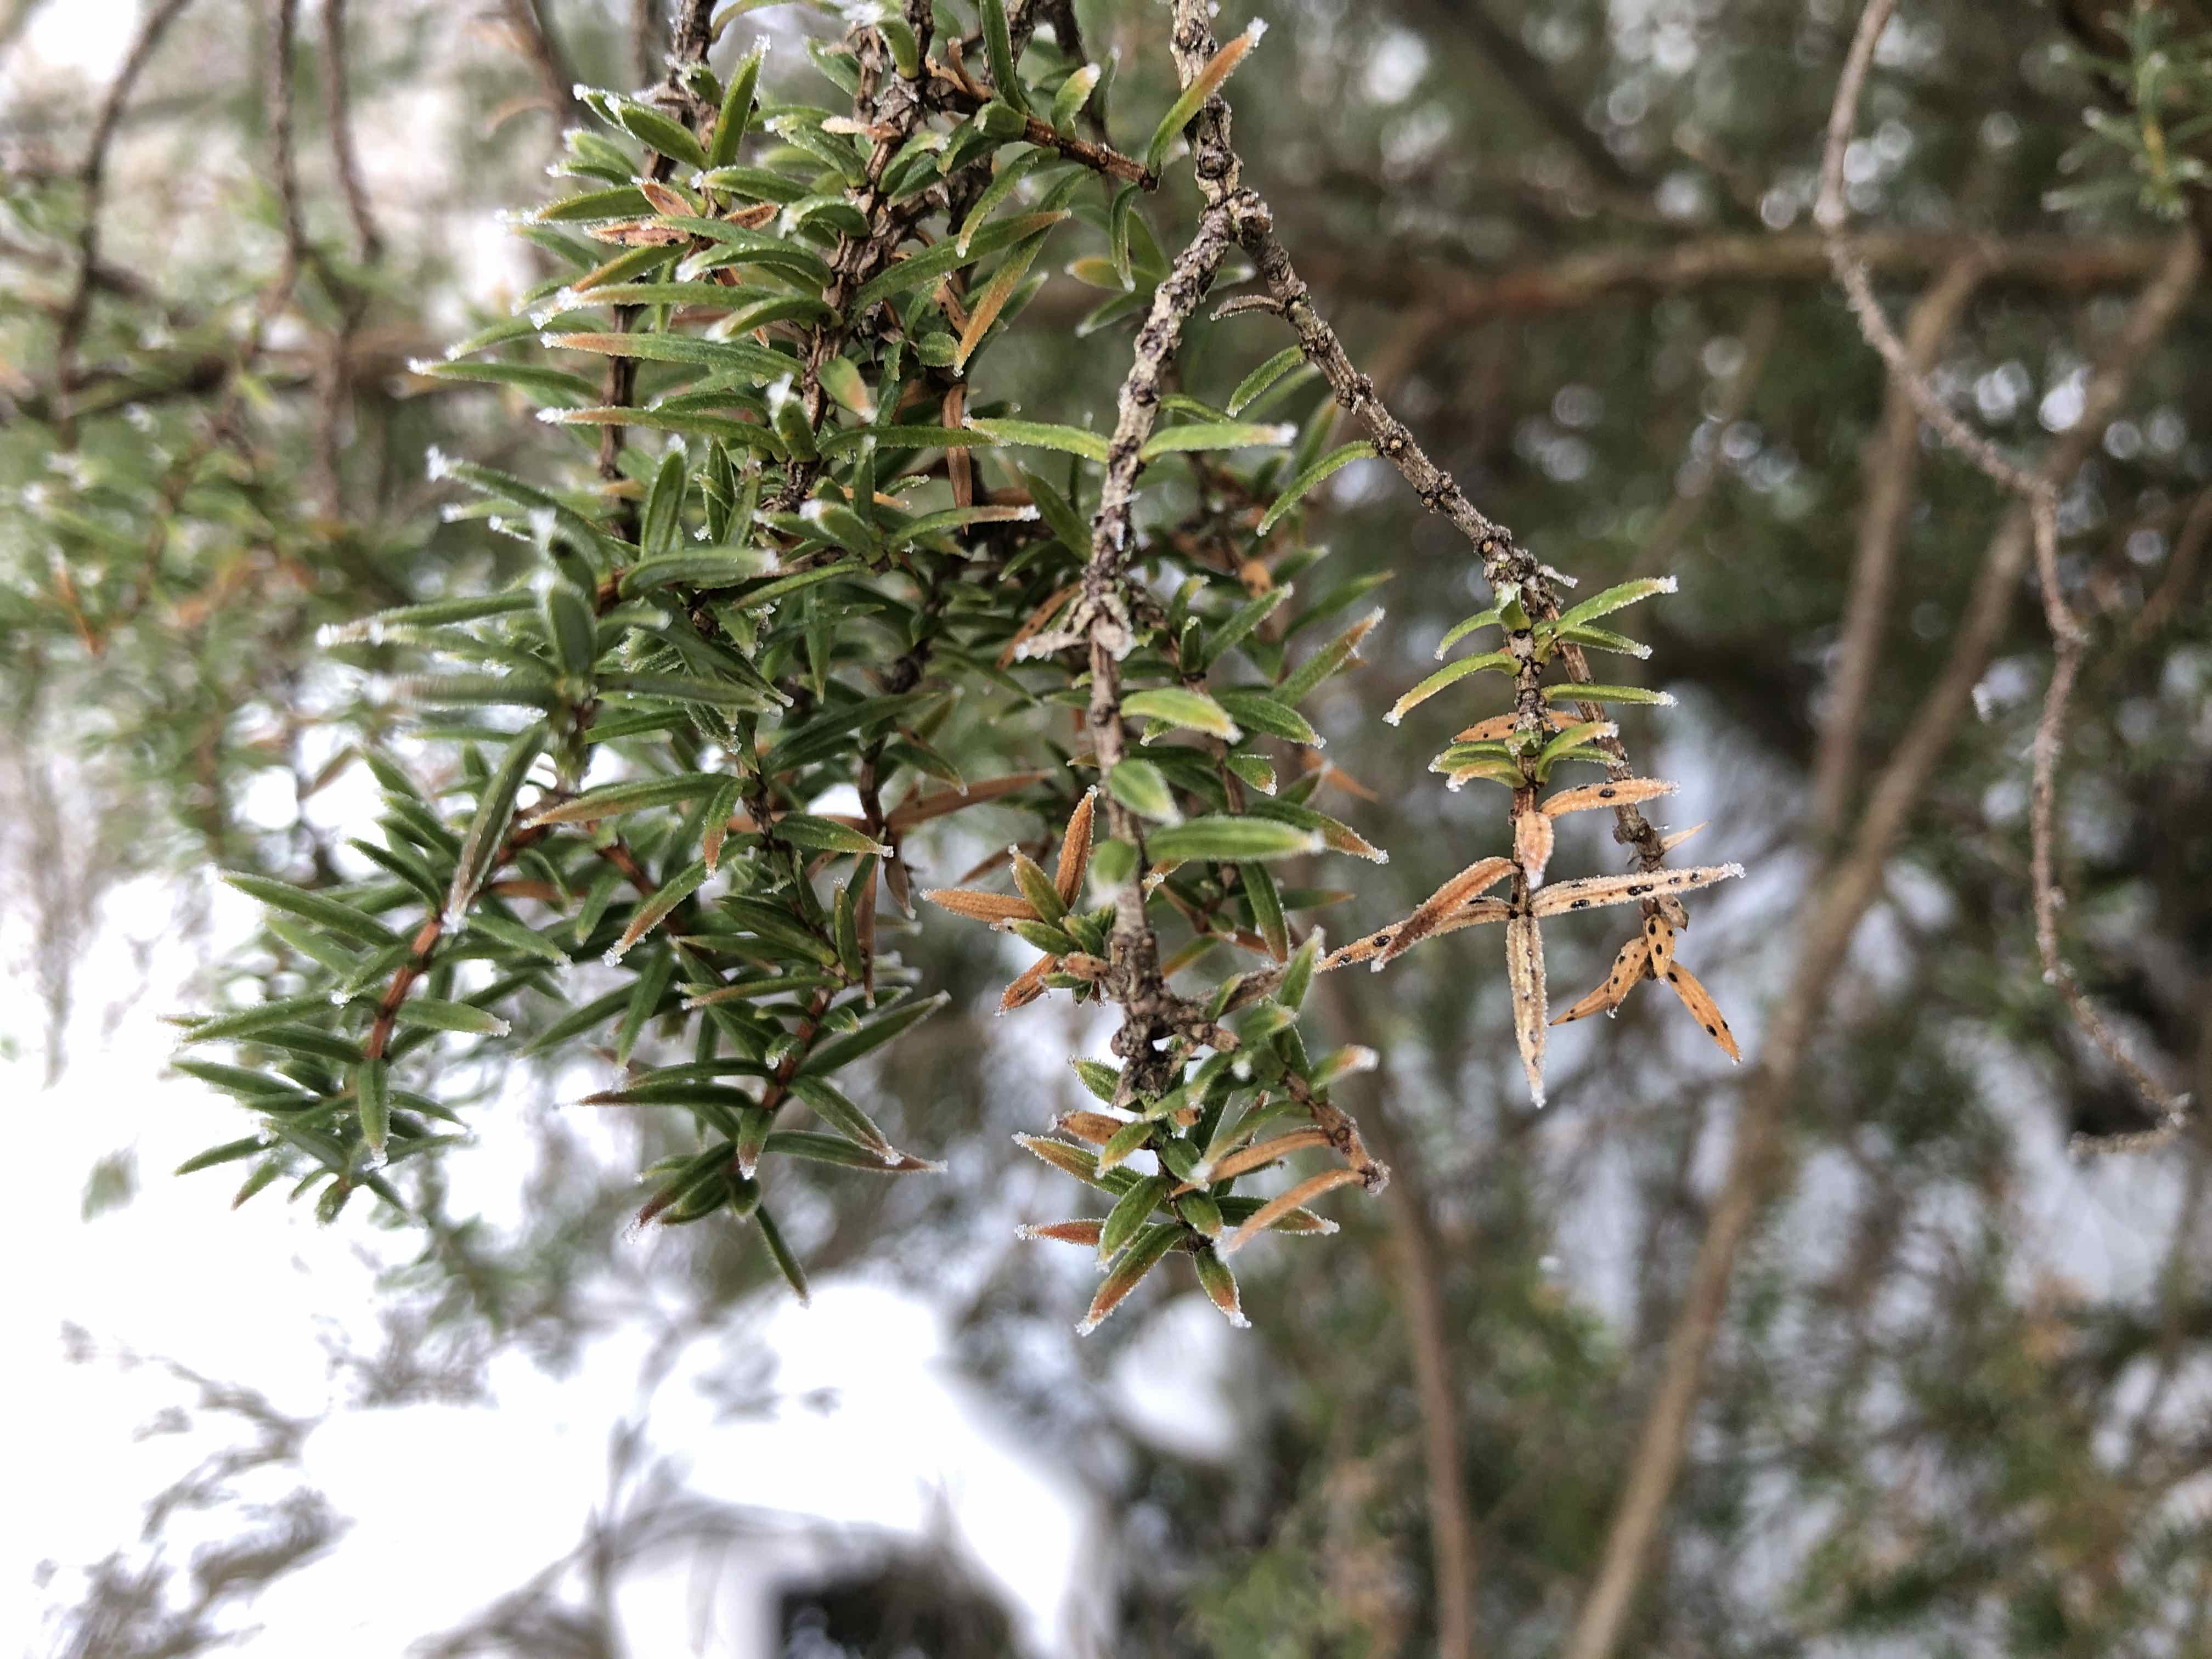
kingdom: Fungi
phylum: Ascomycota
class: Leotiomycetes
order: Rhytismatales
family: Rhytismataceae
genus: Lophodermium
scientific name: Lophodermium juniperinum
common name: ene-fureplet
